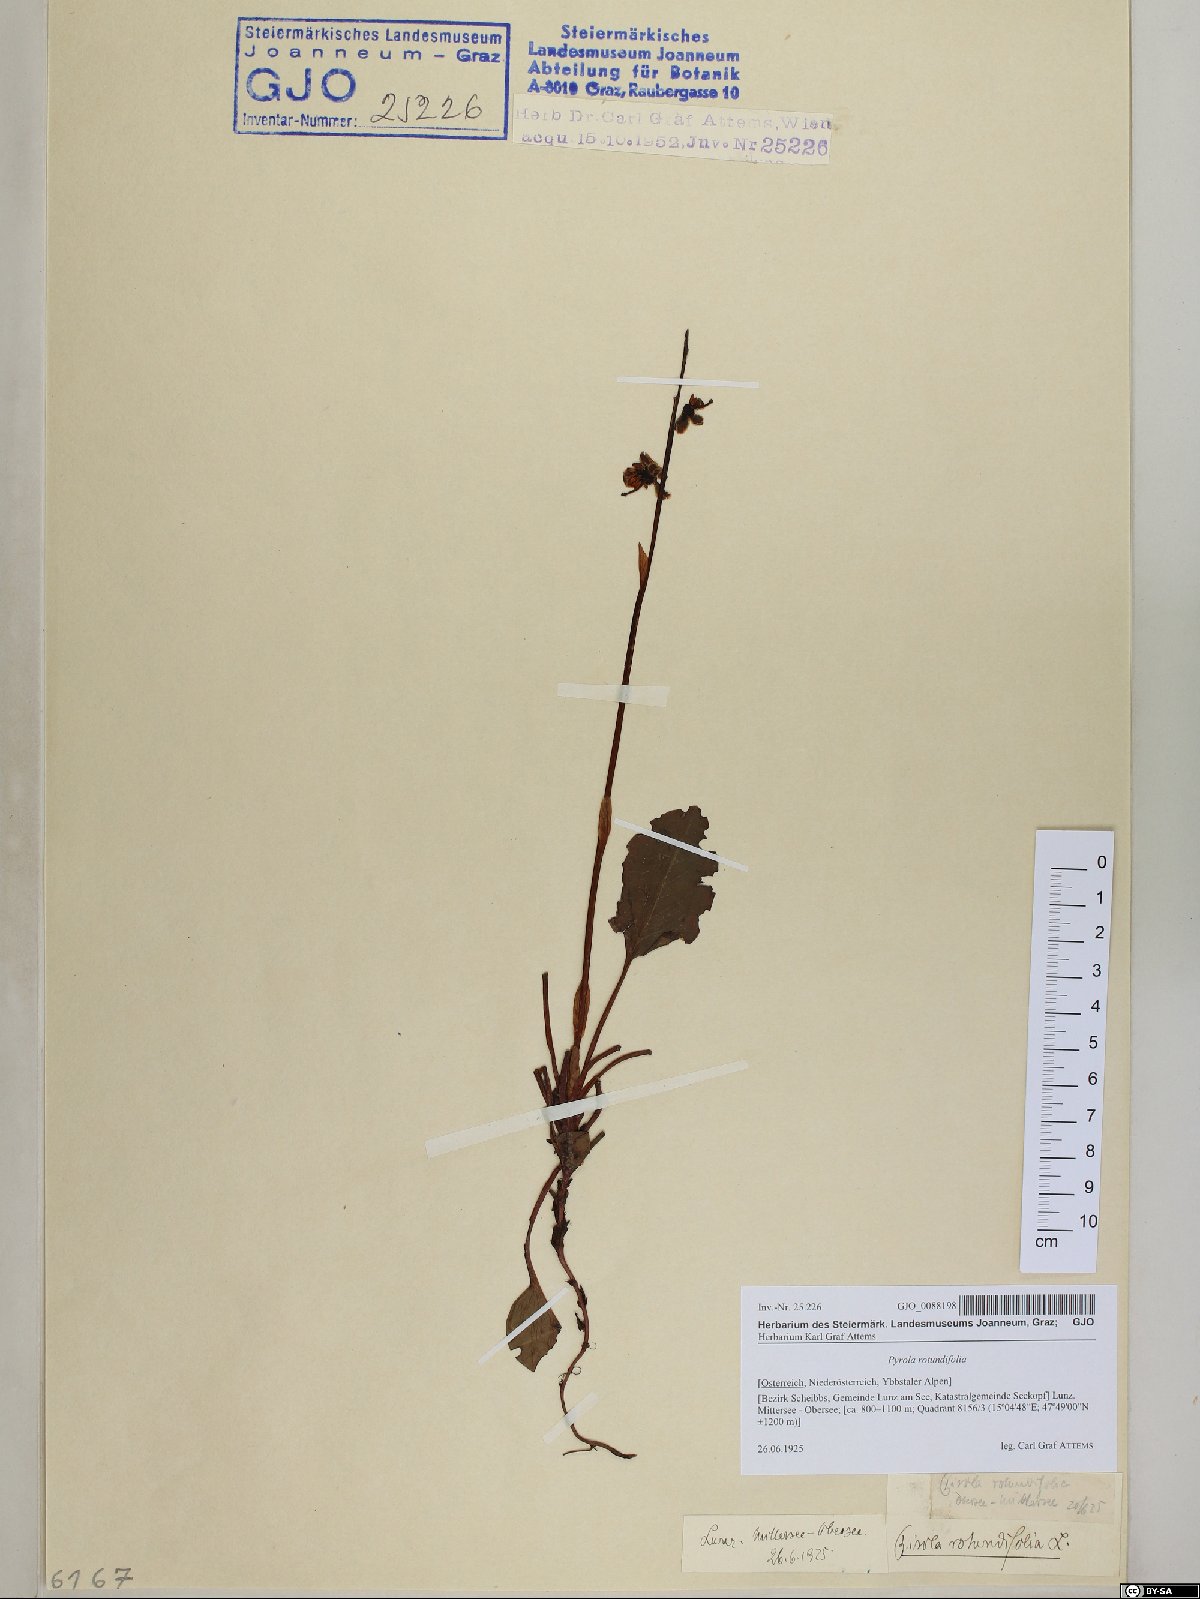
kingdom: Plantae
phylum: Tracheophyta
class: Magnoliopsida
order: Ericales
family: Ericaceae
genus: Pyrola
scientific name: Pyrola rotundifolia
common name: Round-leaved wintergreen
